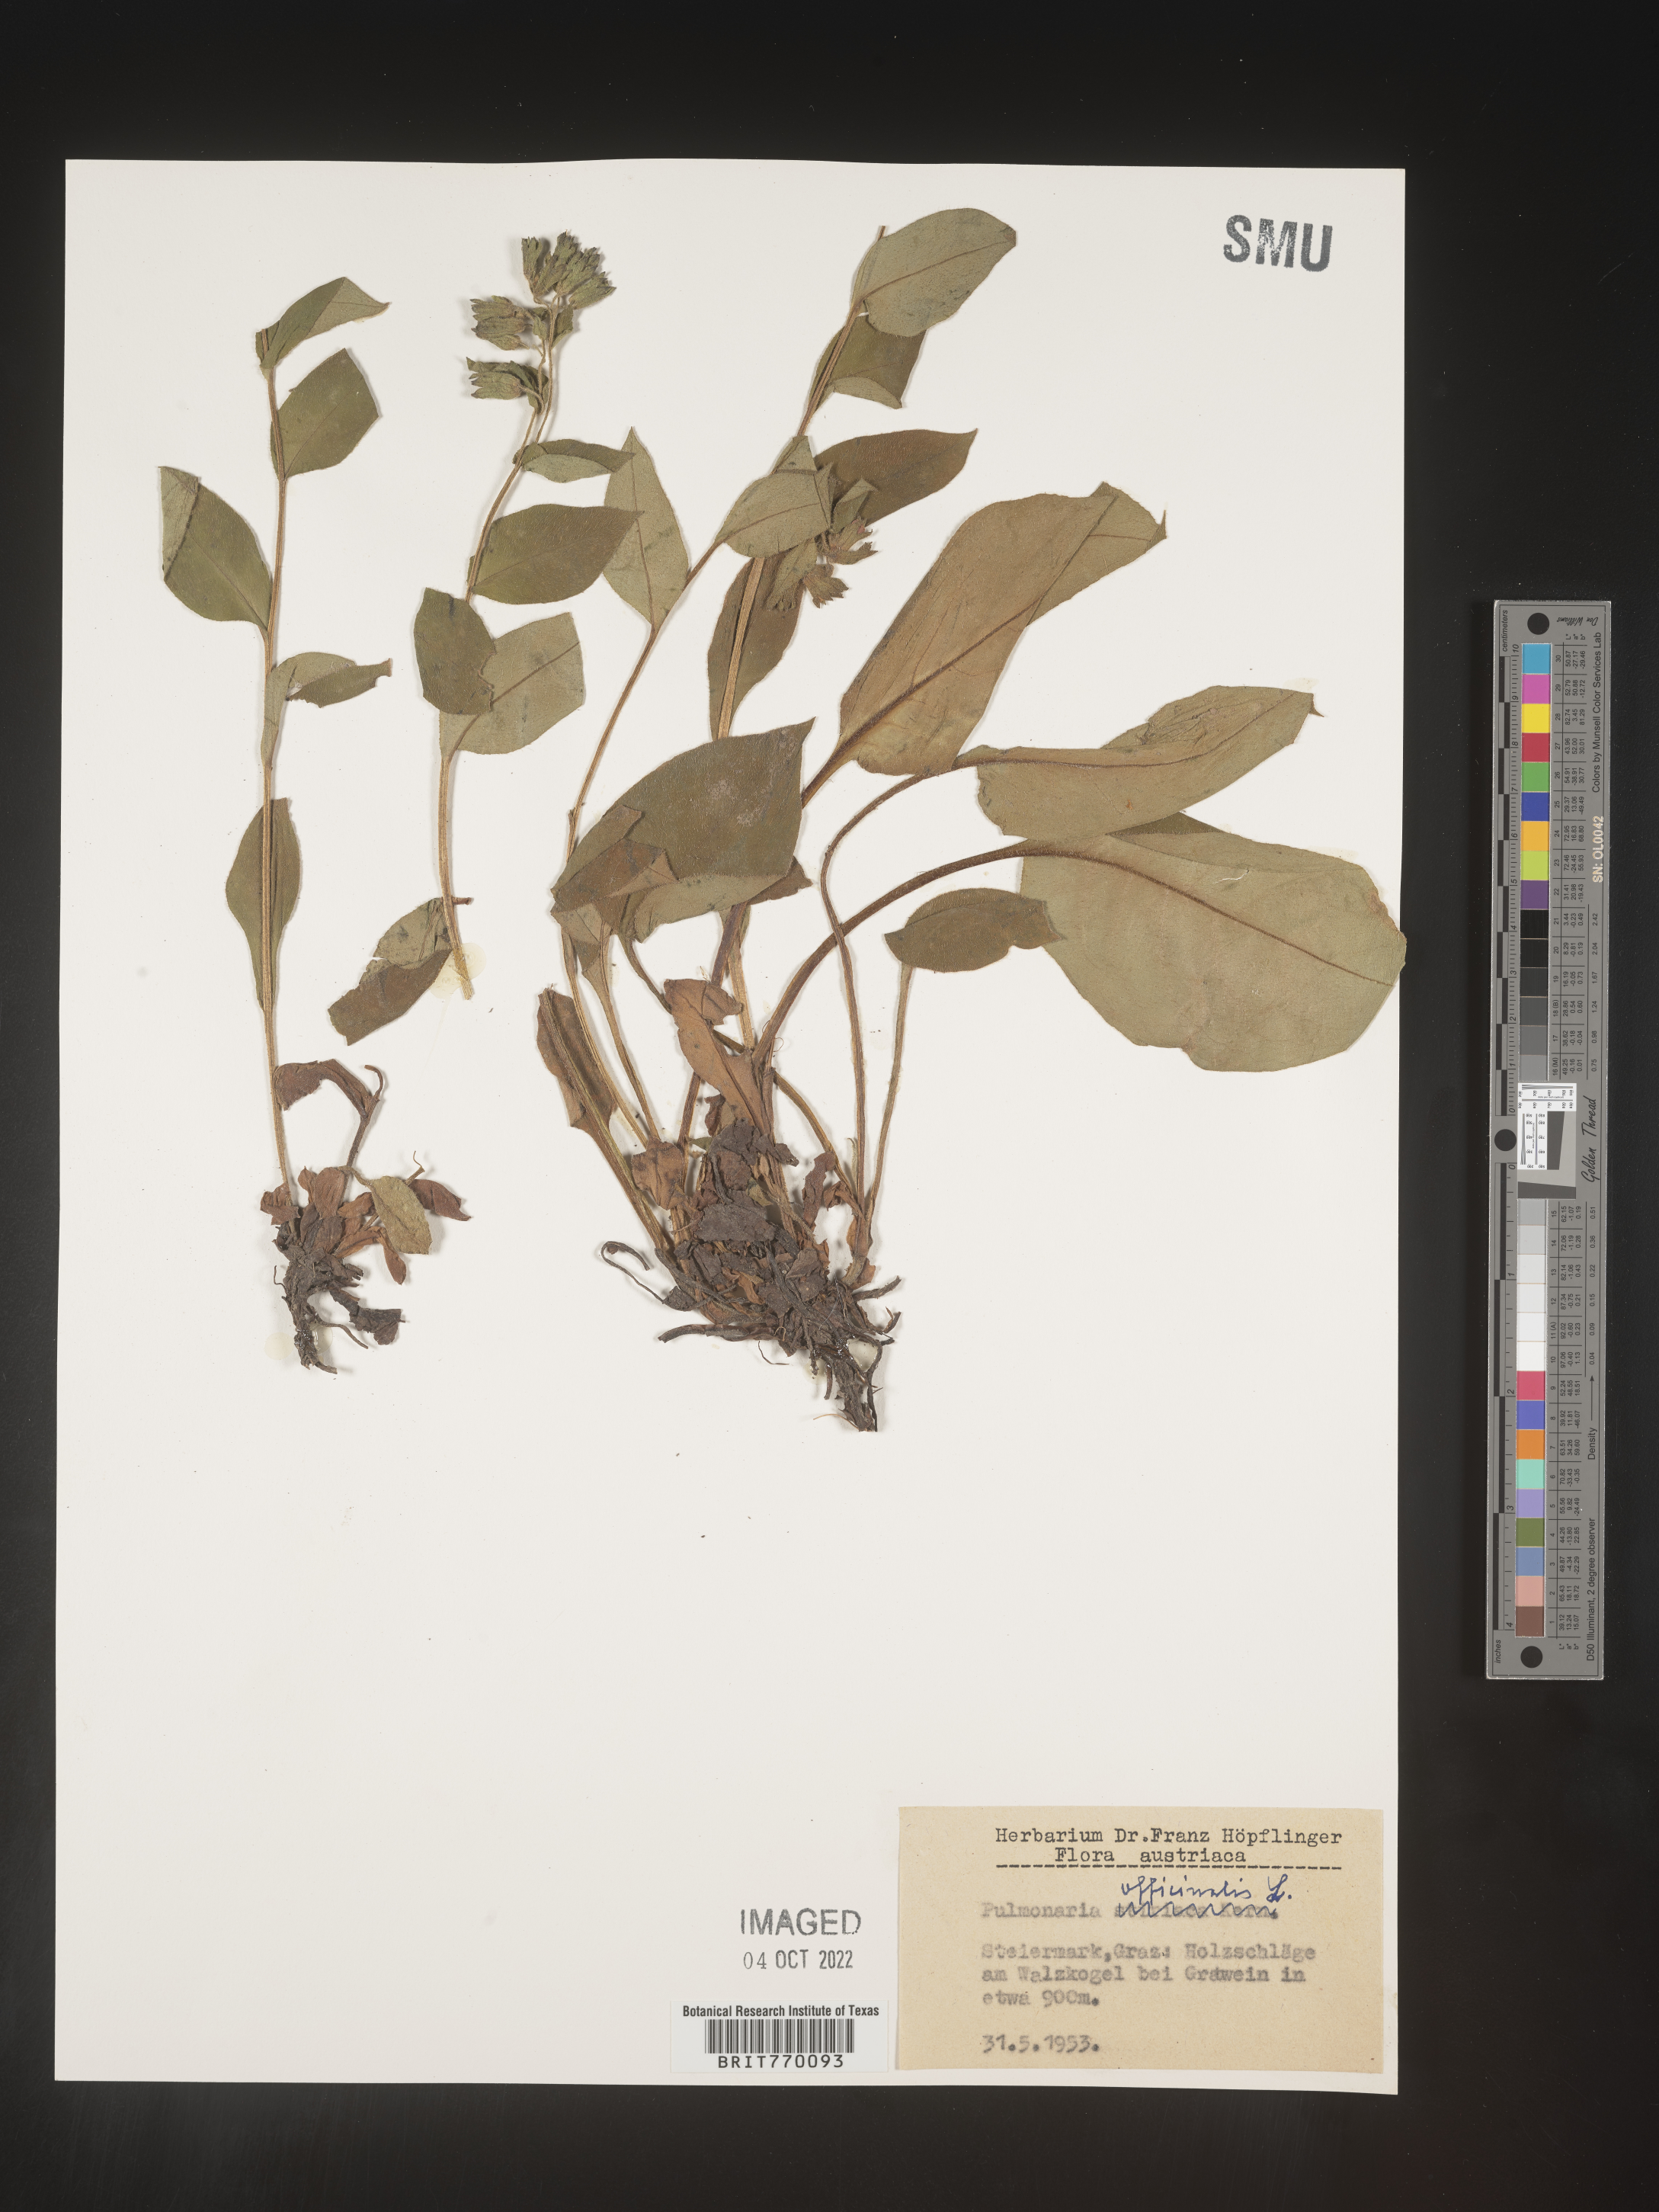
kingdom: Plantae
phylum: Tracheophyta
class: Magnoliopsida
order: Boraginales
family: Boraginaceae
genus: Pulmonaria
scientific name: Pulmonaria
